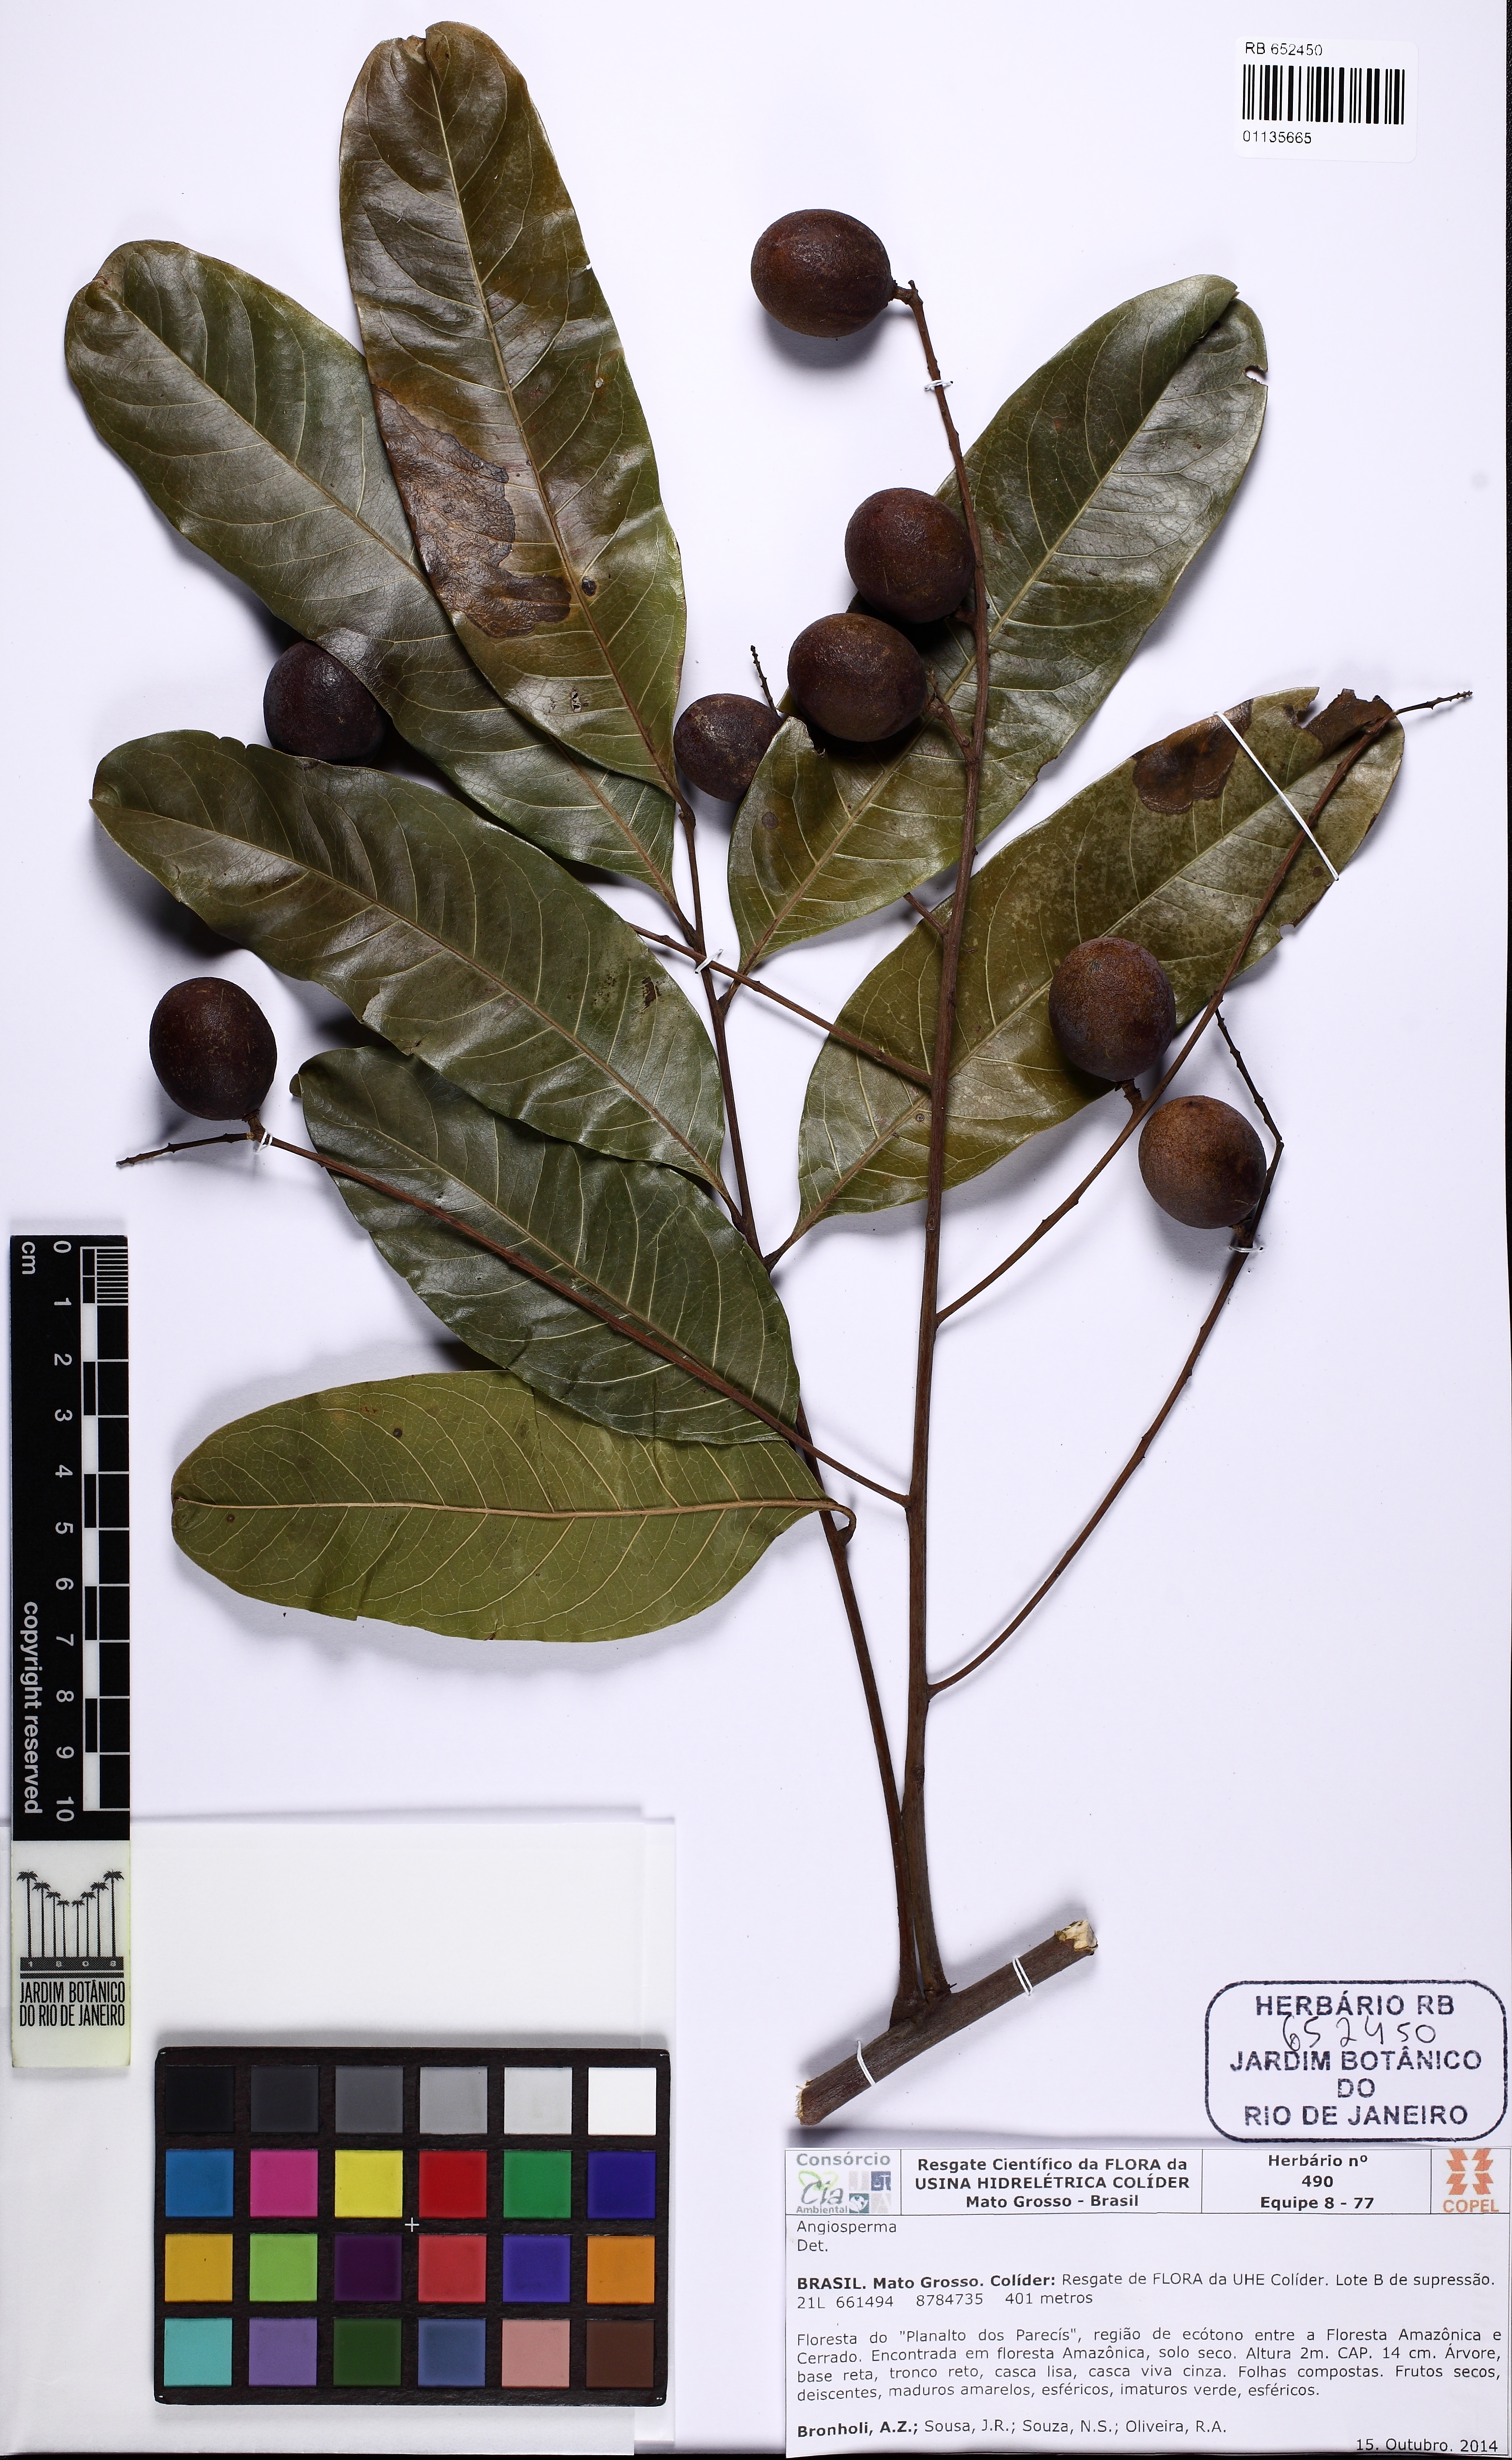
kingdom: Plantae
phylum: Tracheophyta
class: Magnoliopsida
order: Sapindales
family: Sapindaceae
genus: Talisia
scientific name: Talisia
